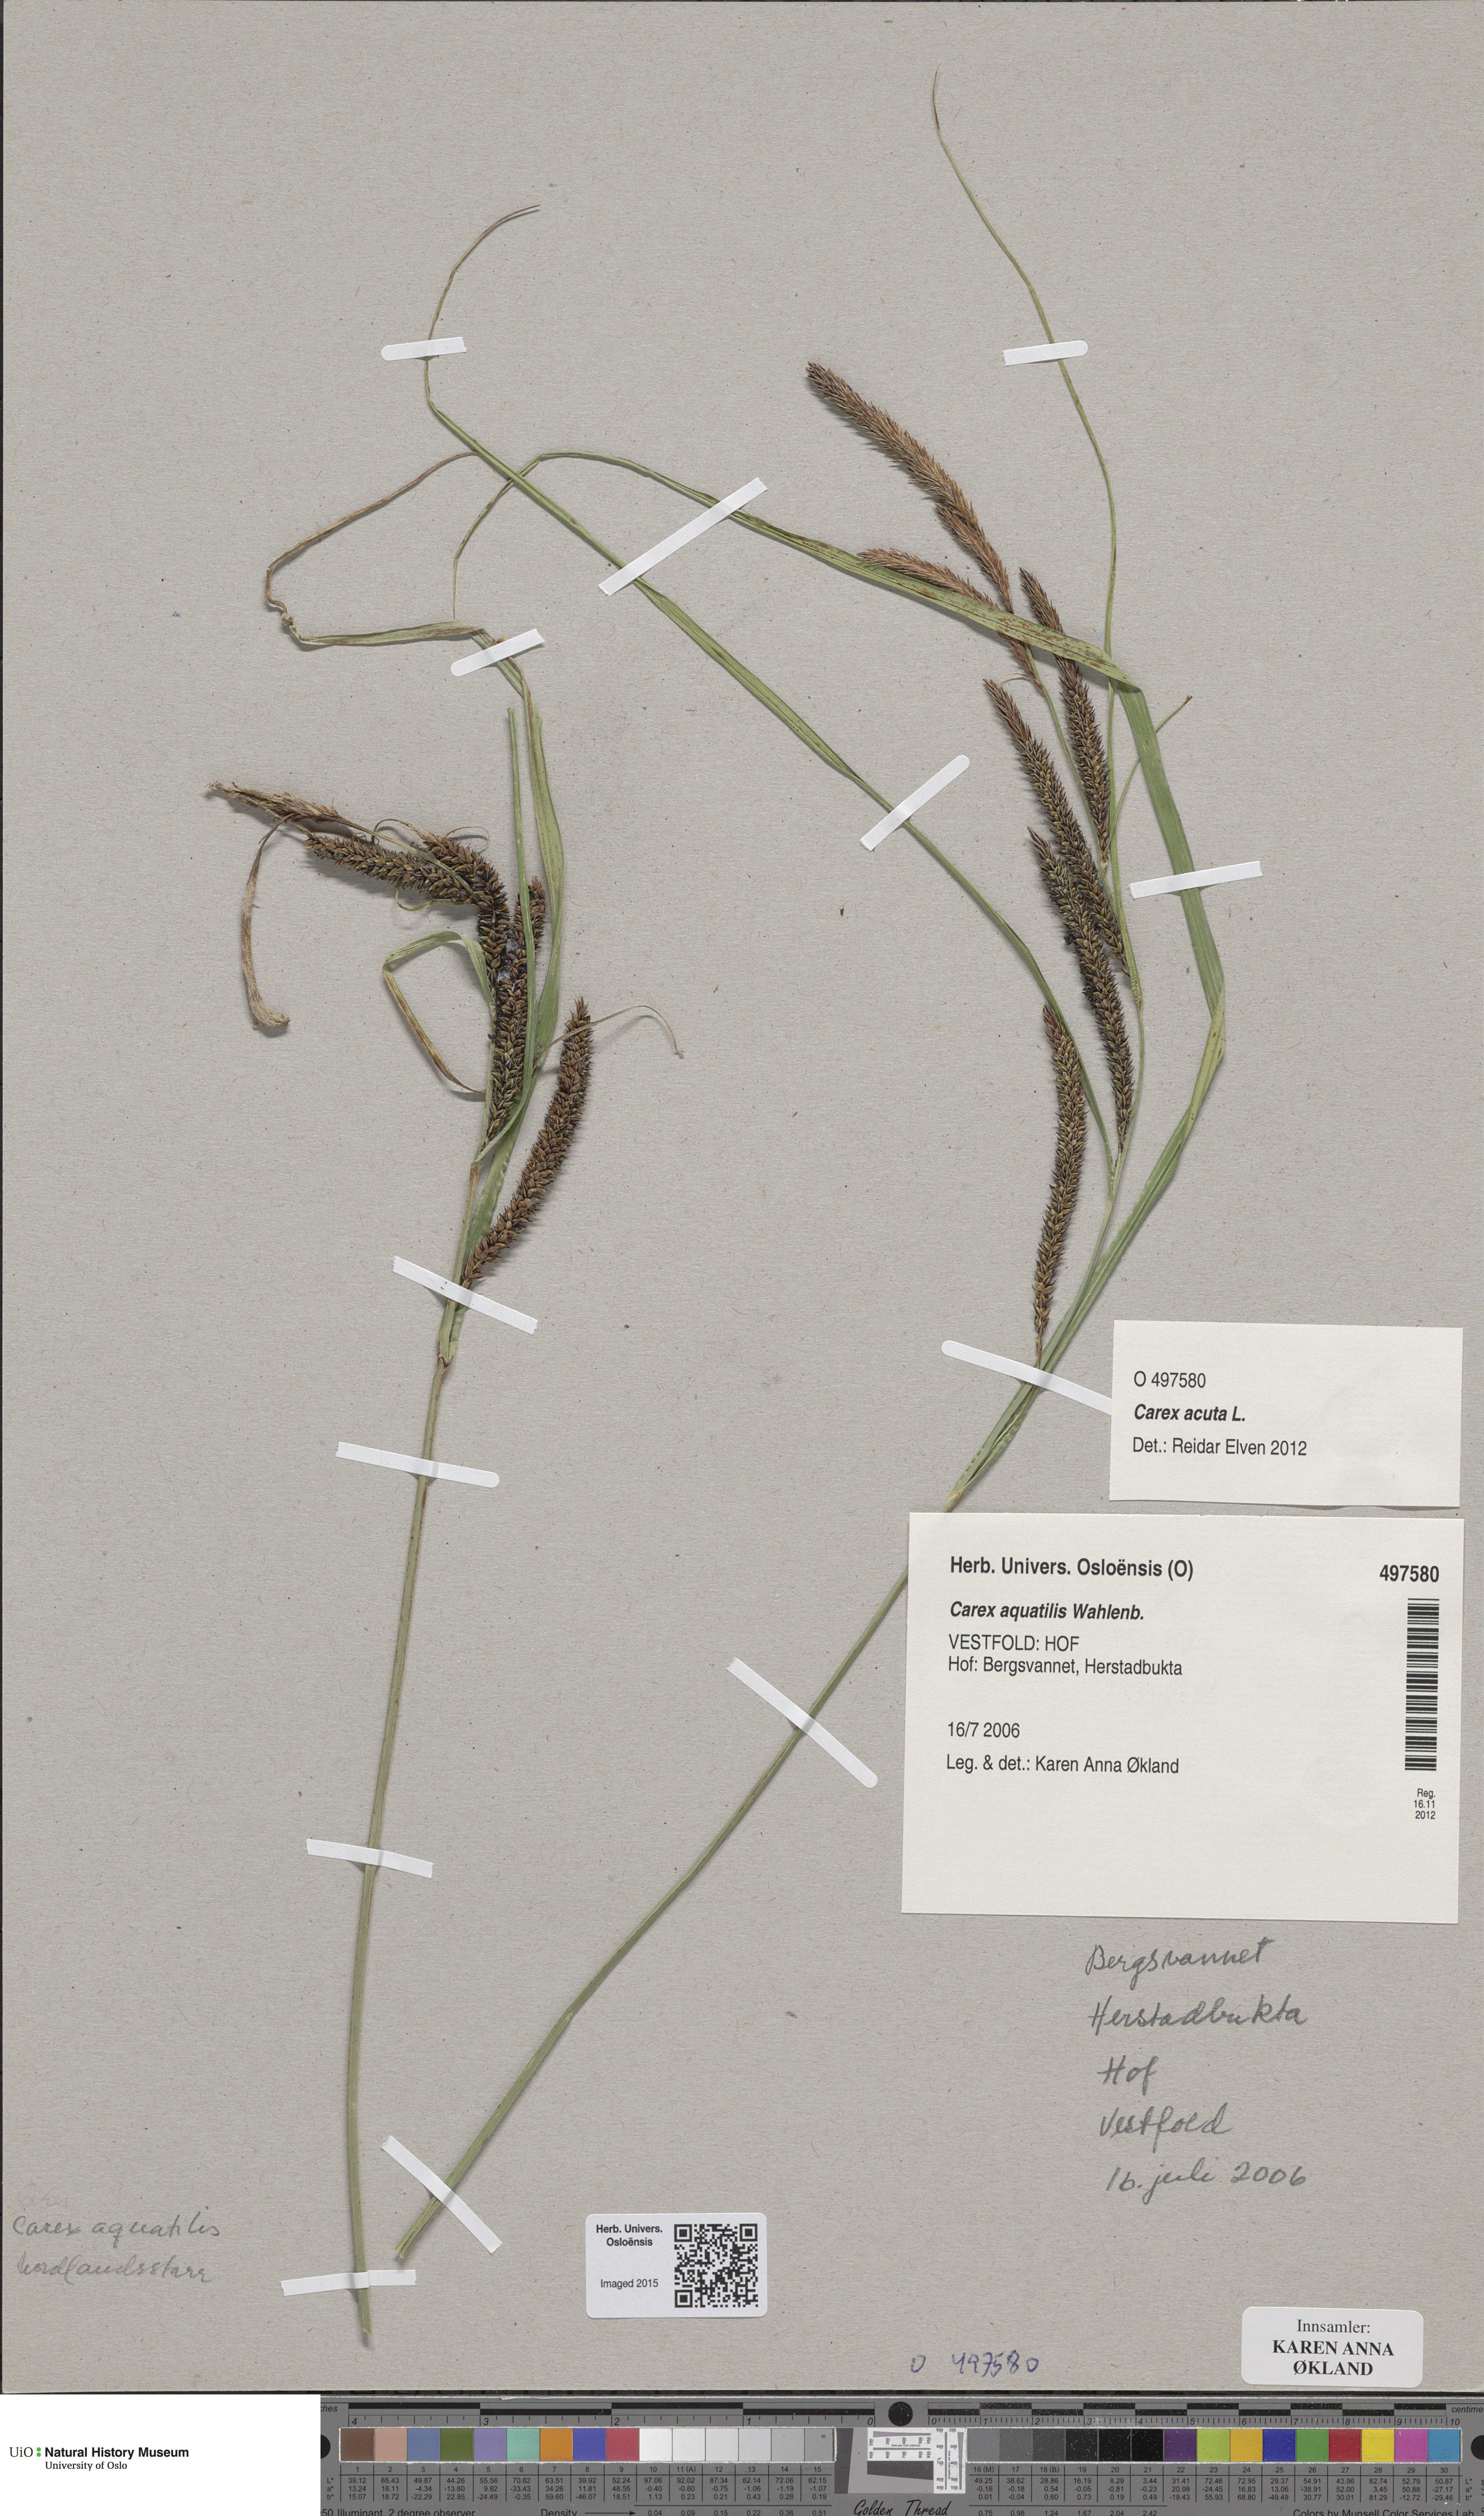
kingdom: Plantae
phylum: Tracheophyta
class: Liliopsida
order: Poales
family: Cyperaceae
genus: Carex
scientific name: Carex aquatilis
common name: Water sedge
